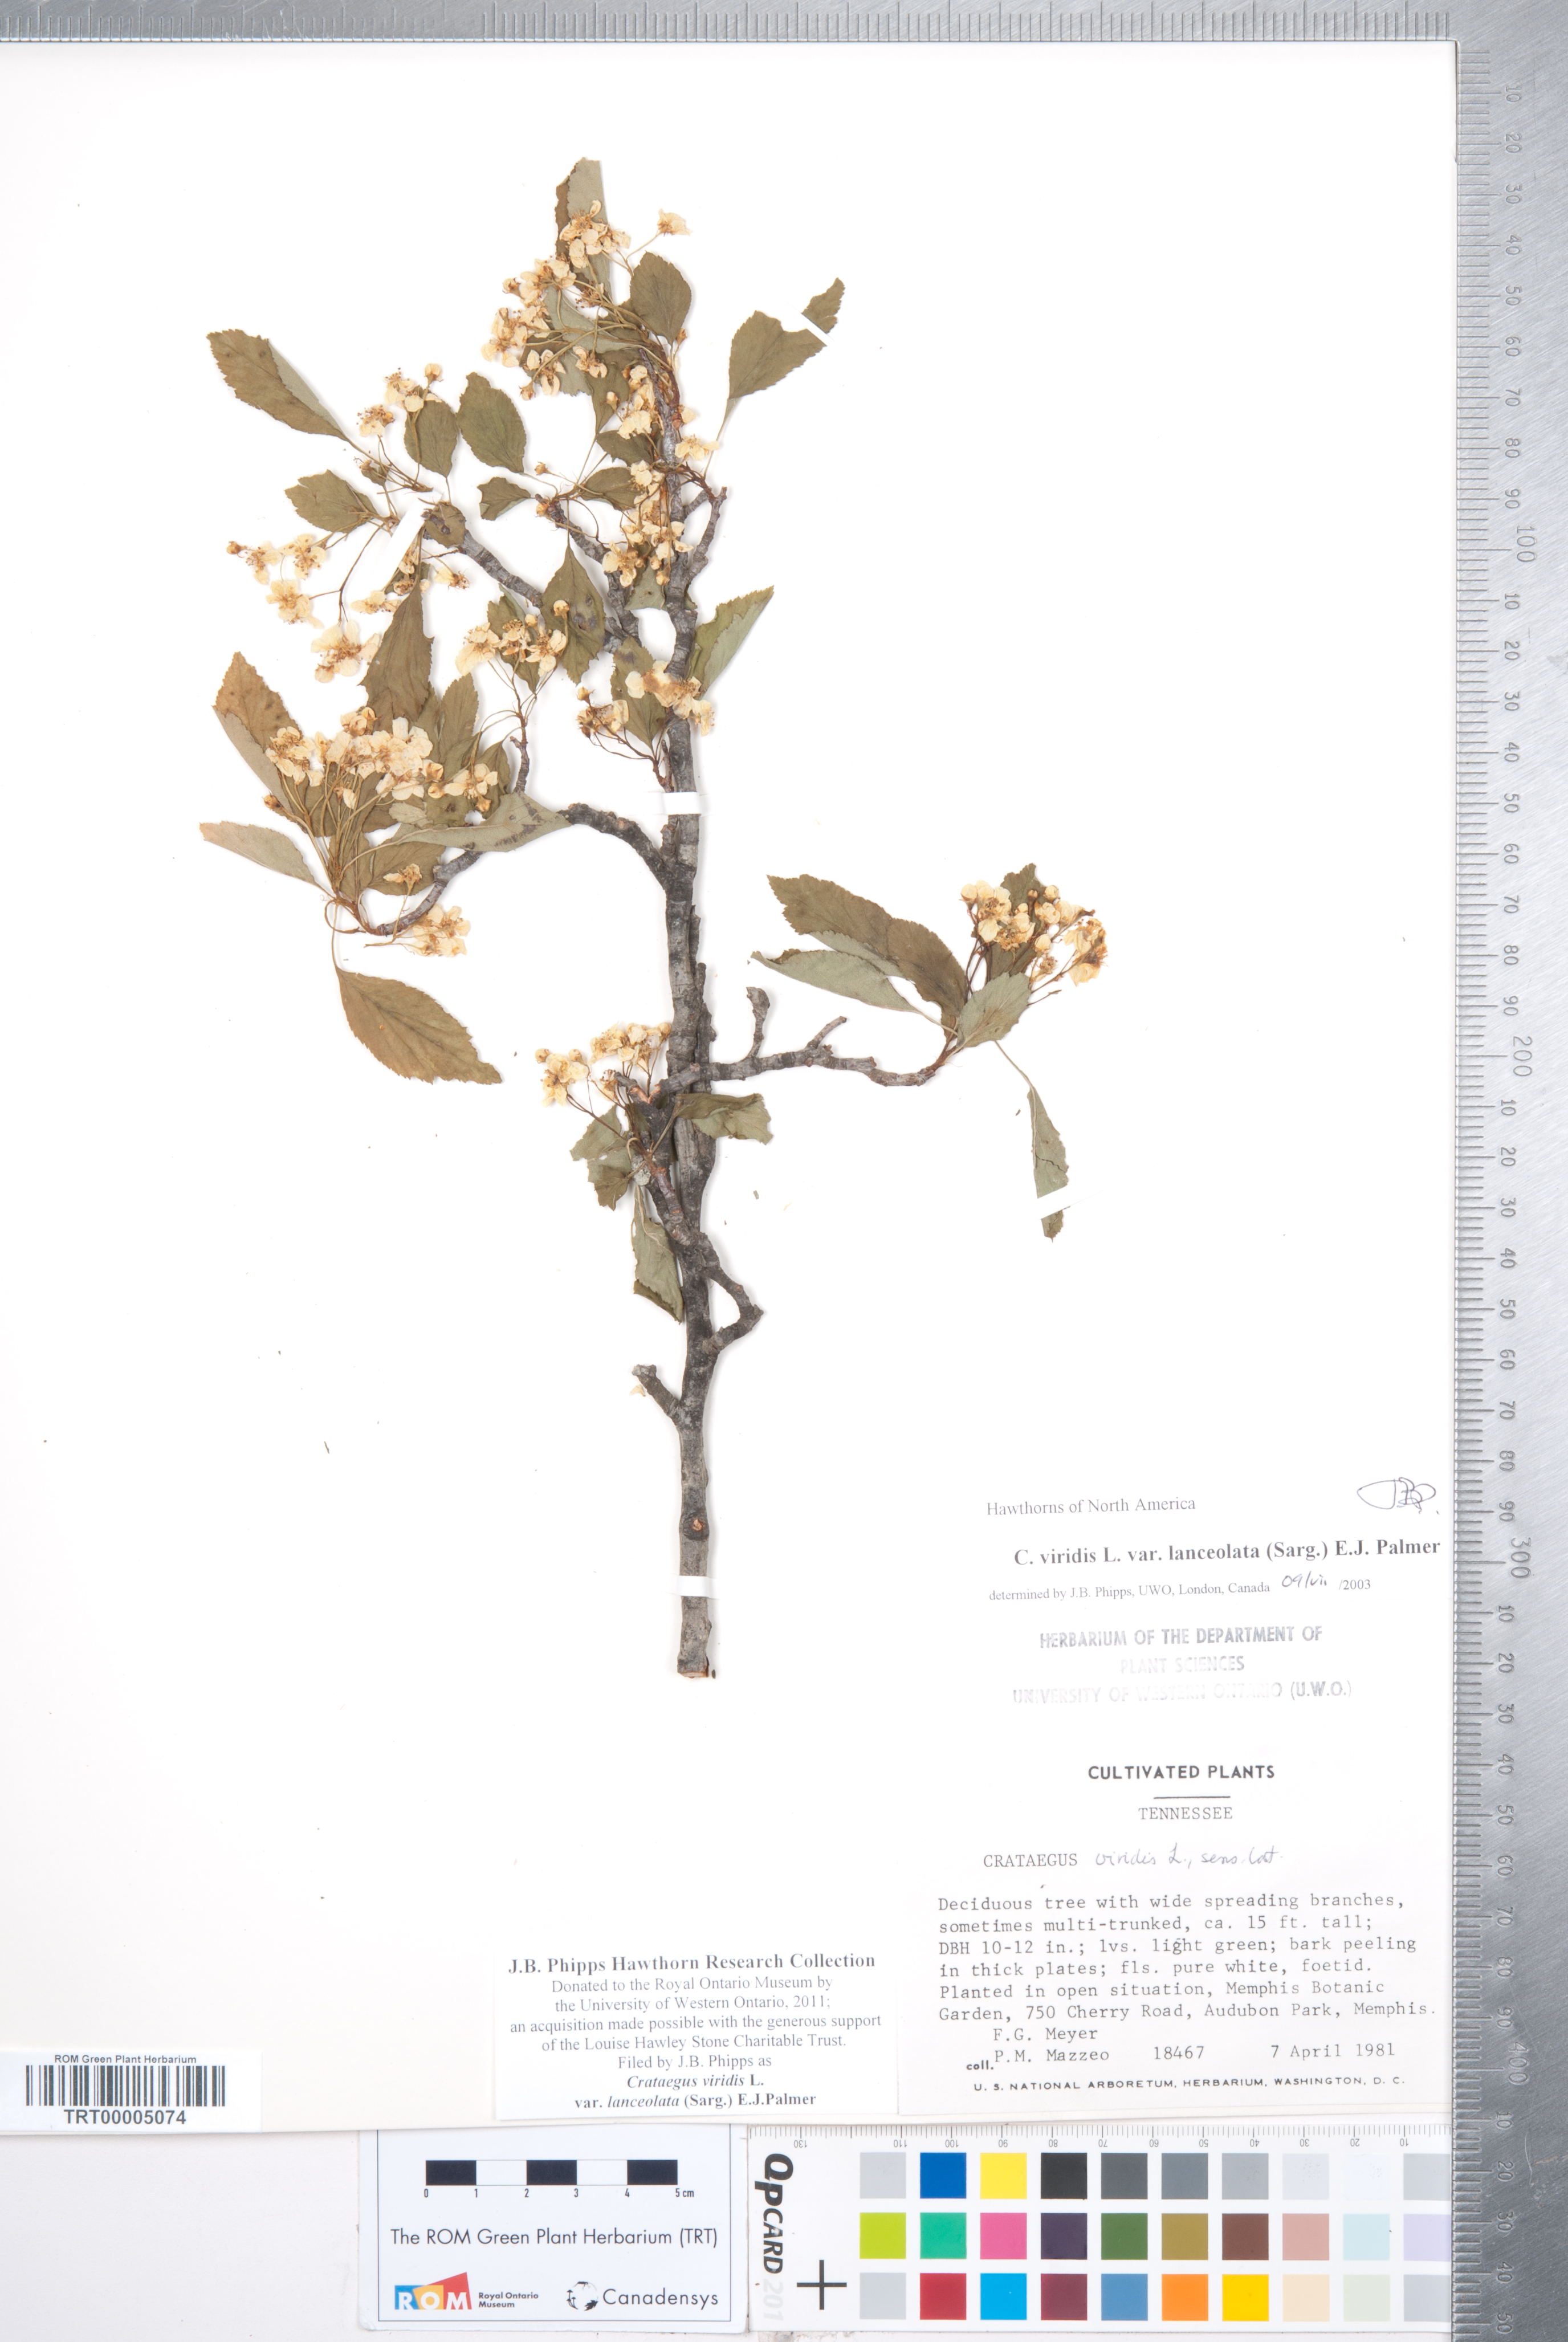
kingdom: Plantae
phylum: Tracheophyta
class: Magnoliopsida
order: Rosales
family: Rosaceae
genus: Crataegus
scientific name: Crataegus viridis
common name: Southernthorn
